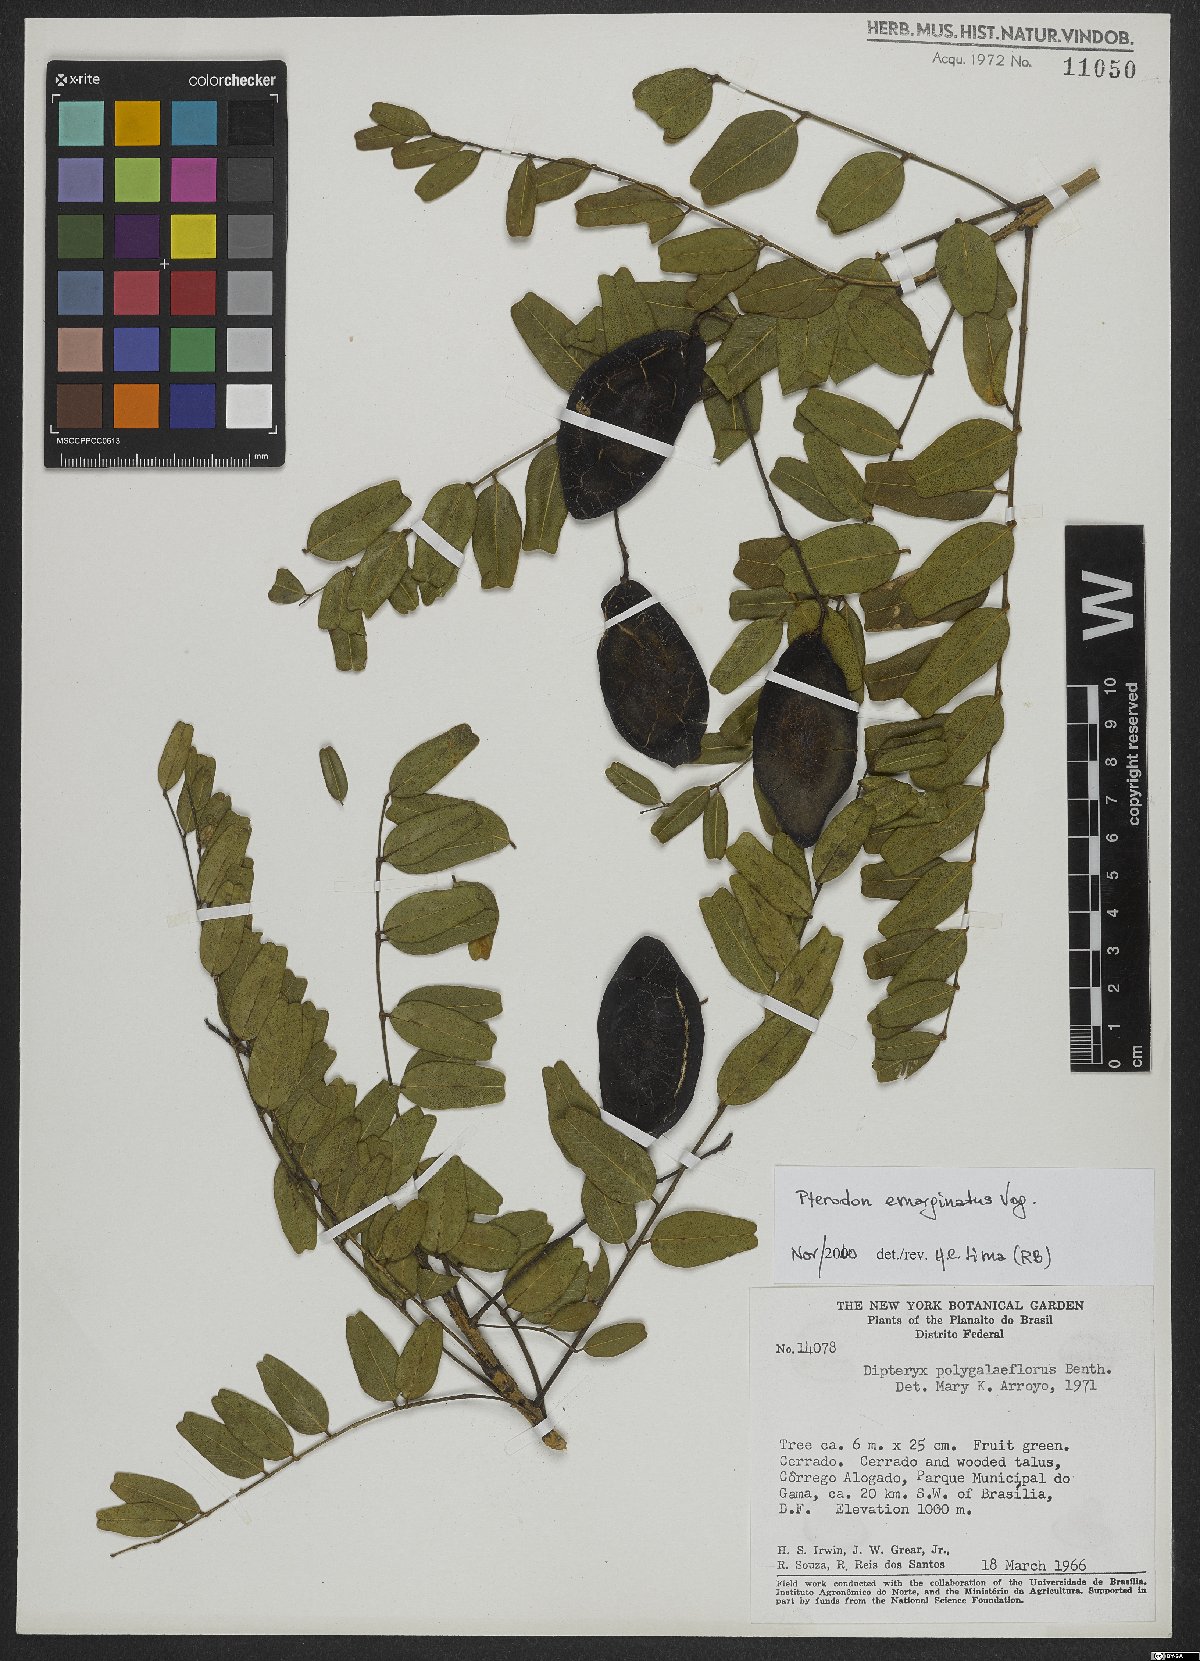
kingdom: Plantae
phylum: Tracheophyta
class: Magnoliopsida
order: Fabales
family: Fabaceae
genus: Pterodon
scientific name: Pterodon emarginatus
